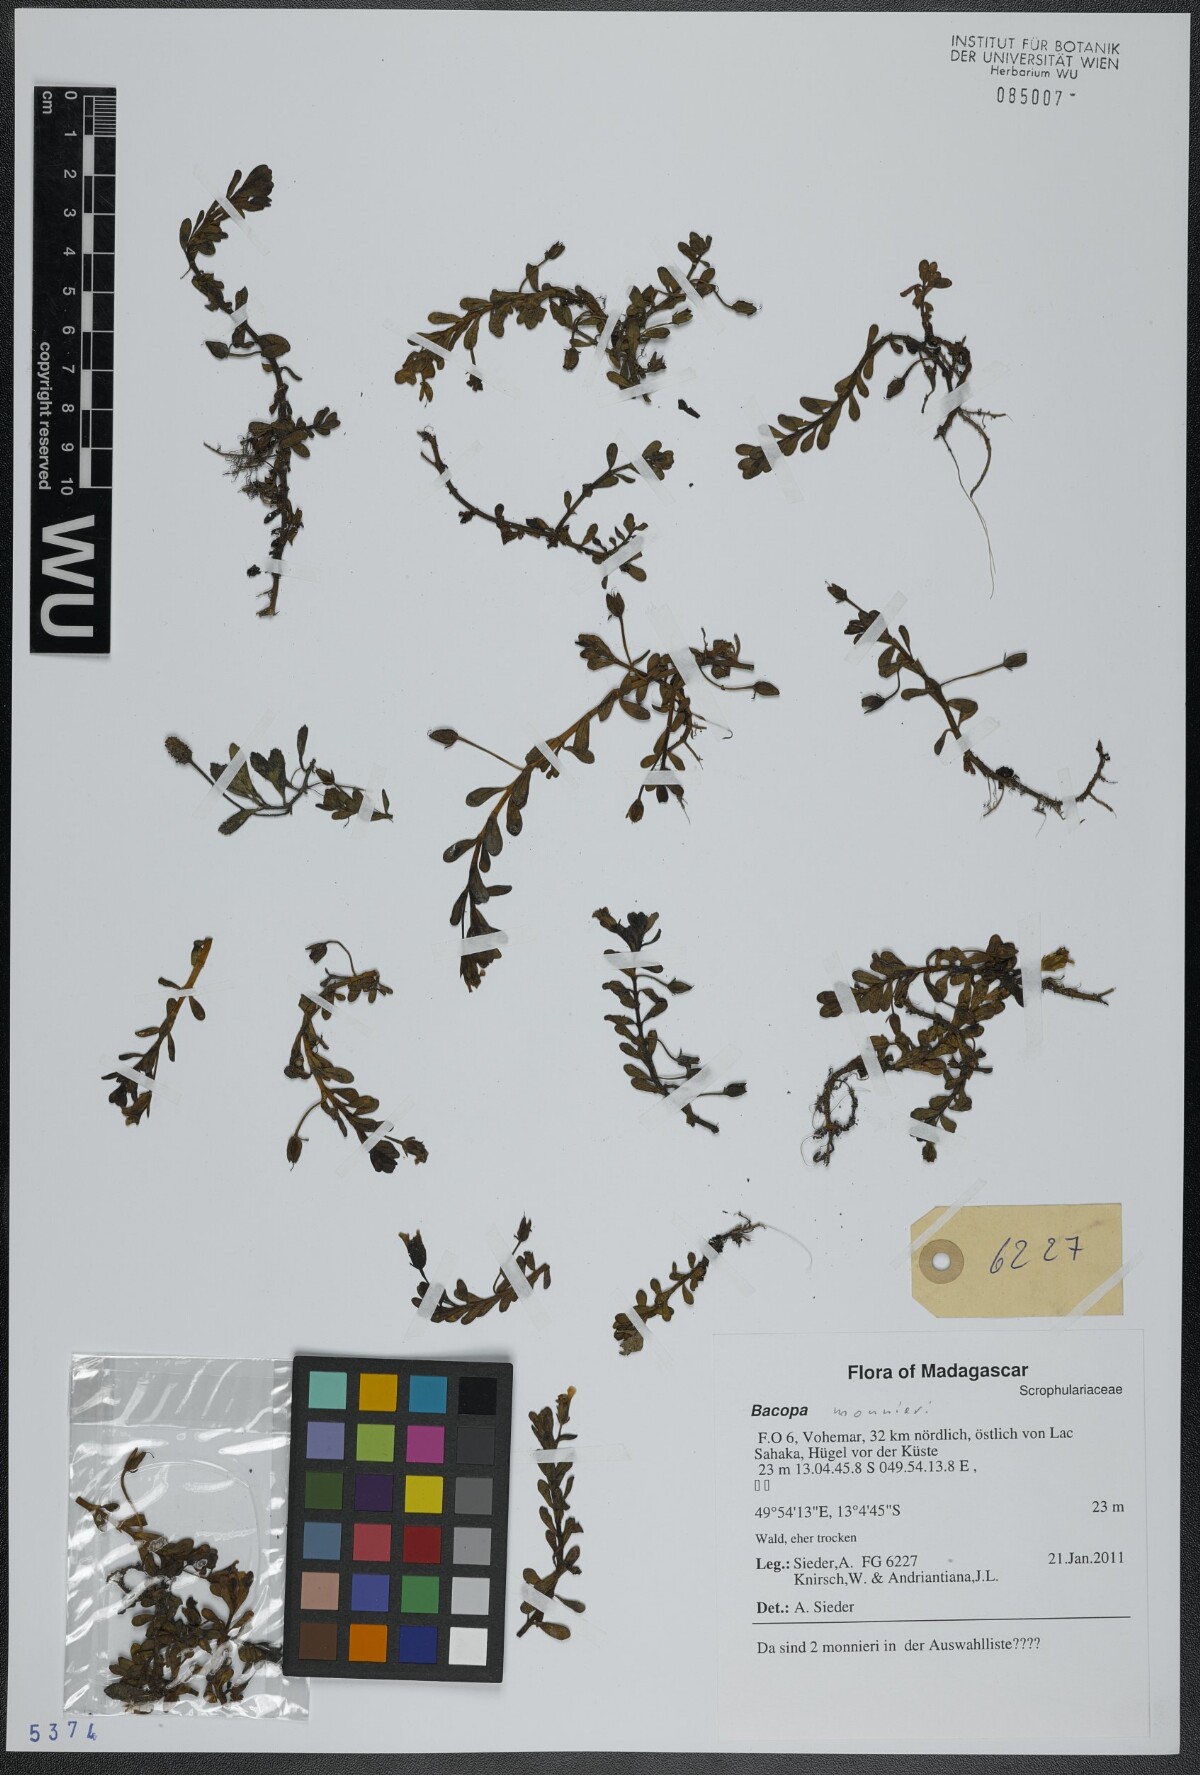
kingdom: Plantae
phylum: Tracheophyta
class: Magnoliopsida
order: Lamiales
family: Plantaginaceae
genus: Bacopa
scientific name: Bacopa monnieri
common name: Indian-pennywort
